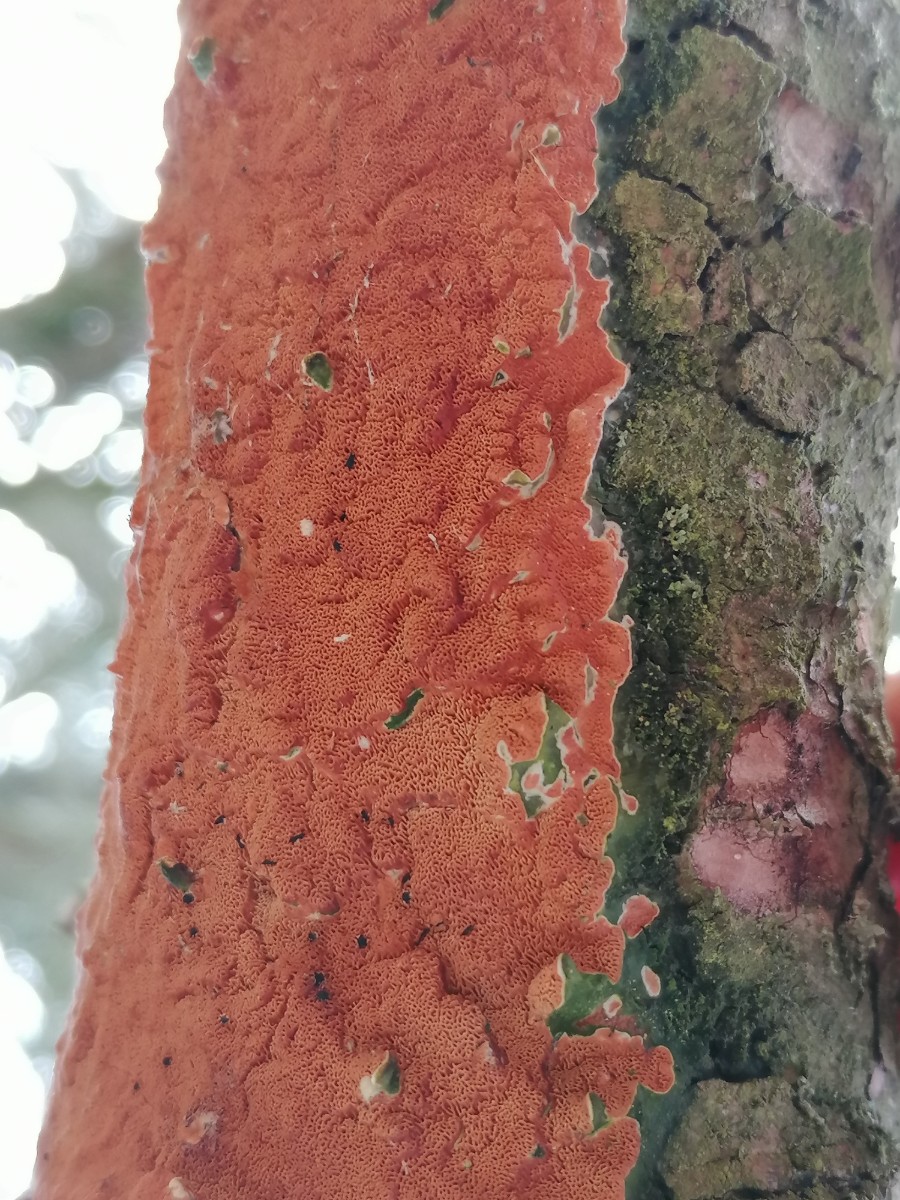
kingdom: Fungi
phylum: Basidiomycota
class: Agaricomycetes
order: Polyporales
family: Irpicaceae
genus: Meruliopsis
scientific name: Meruliopsis taxicola
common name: purpurbrun foldporesvamp
